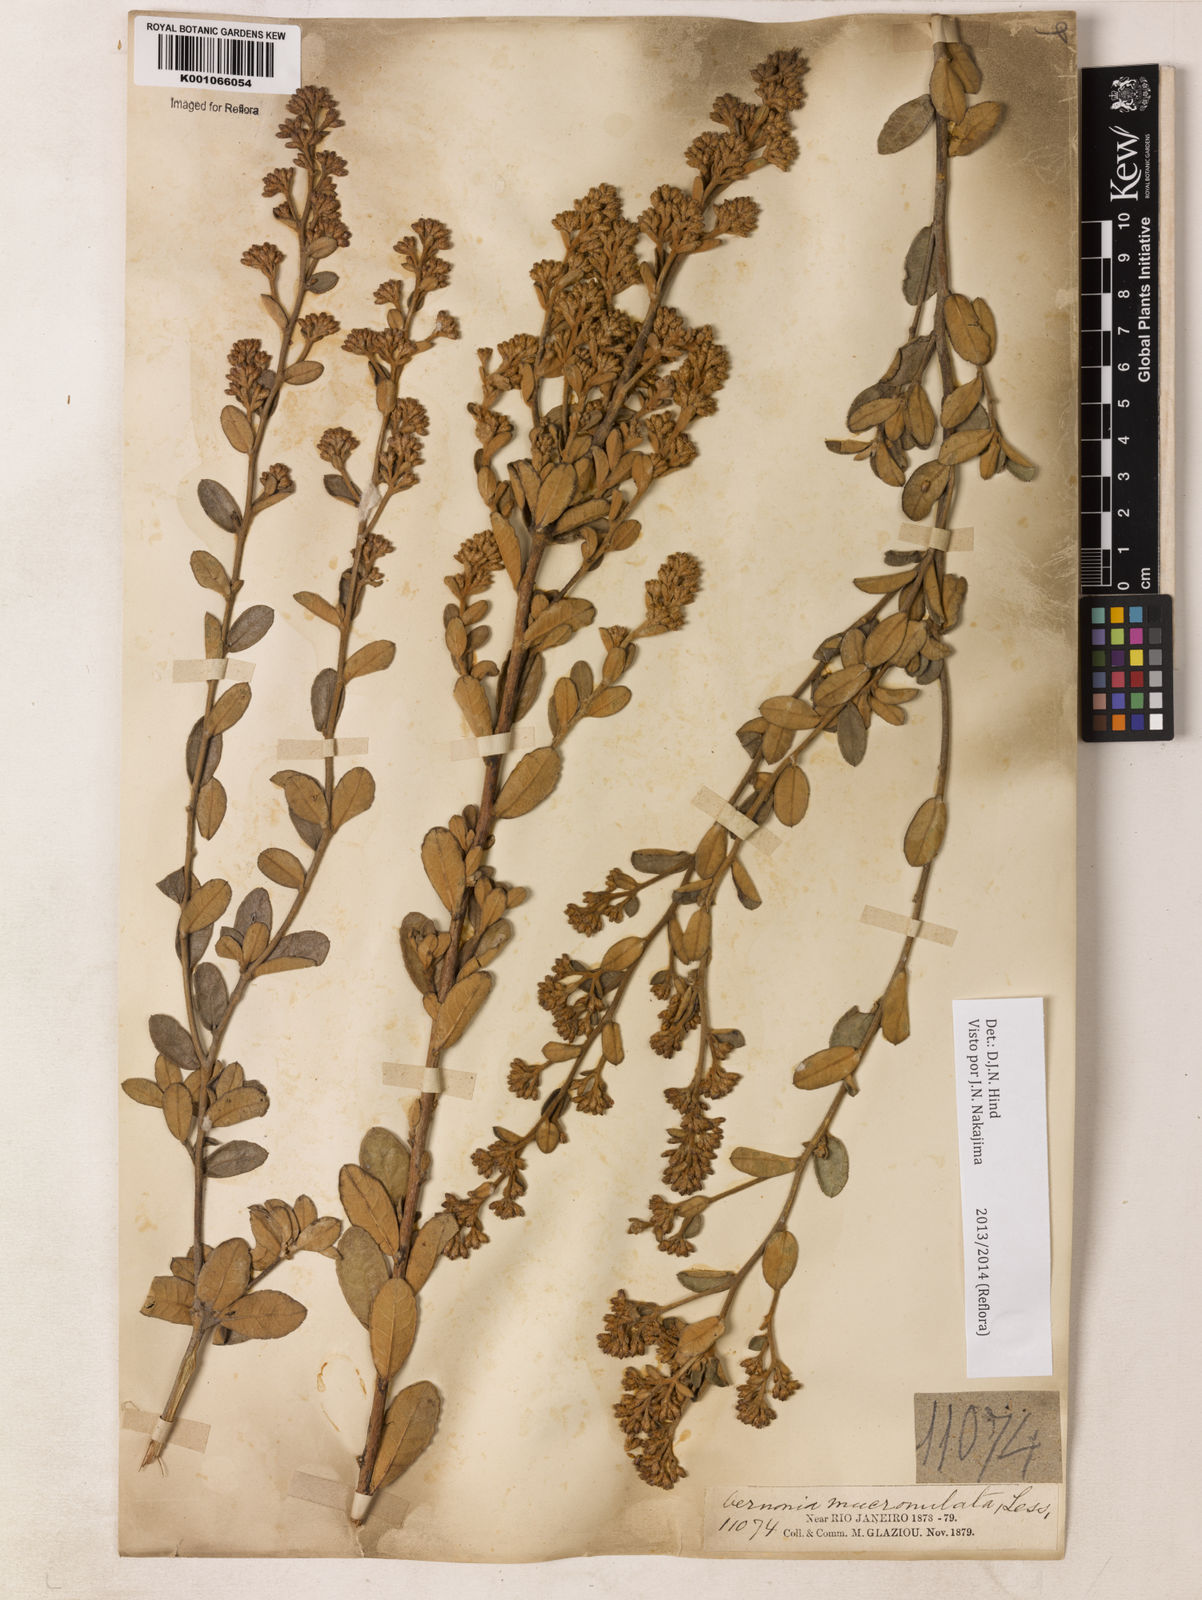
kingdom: Plantae
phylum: Tracheophyta
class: Magnoliopsida
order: Asterales
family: Asteraceae
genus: Vernonanthura
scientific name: Vernonanthura mucronulata
